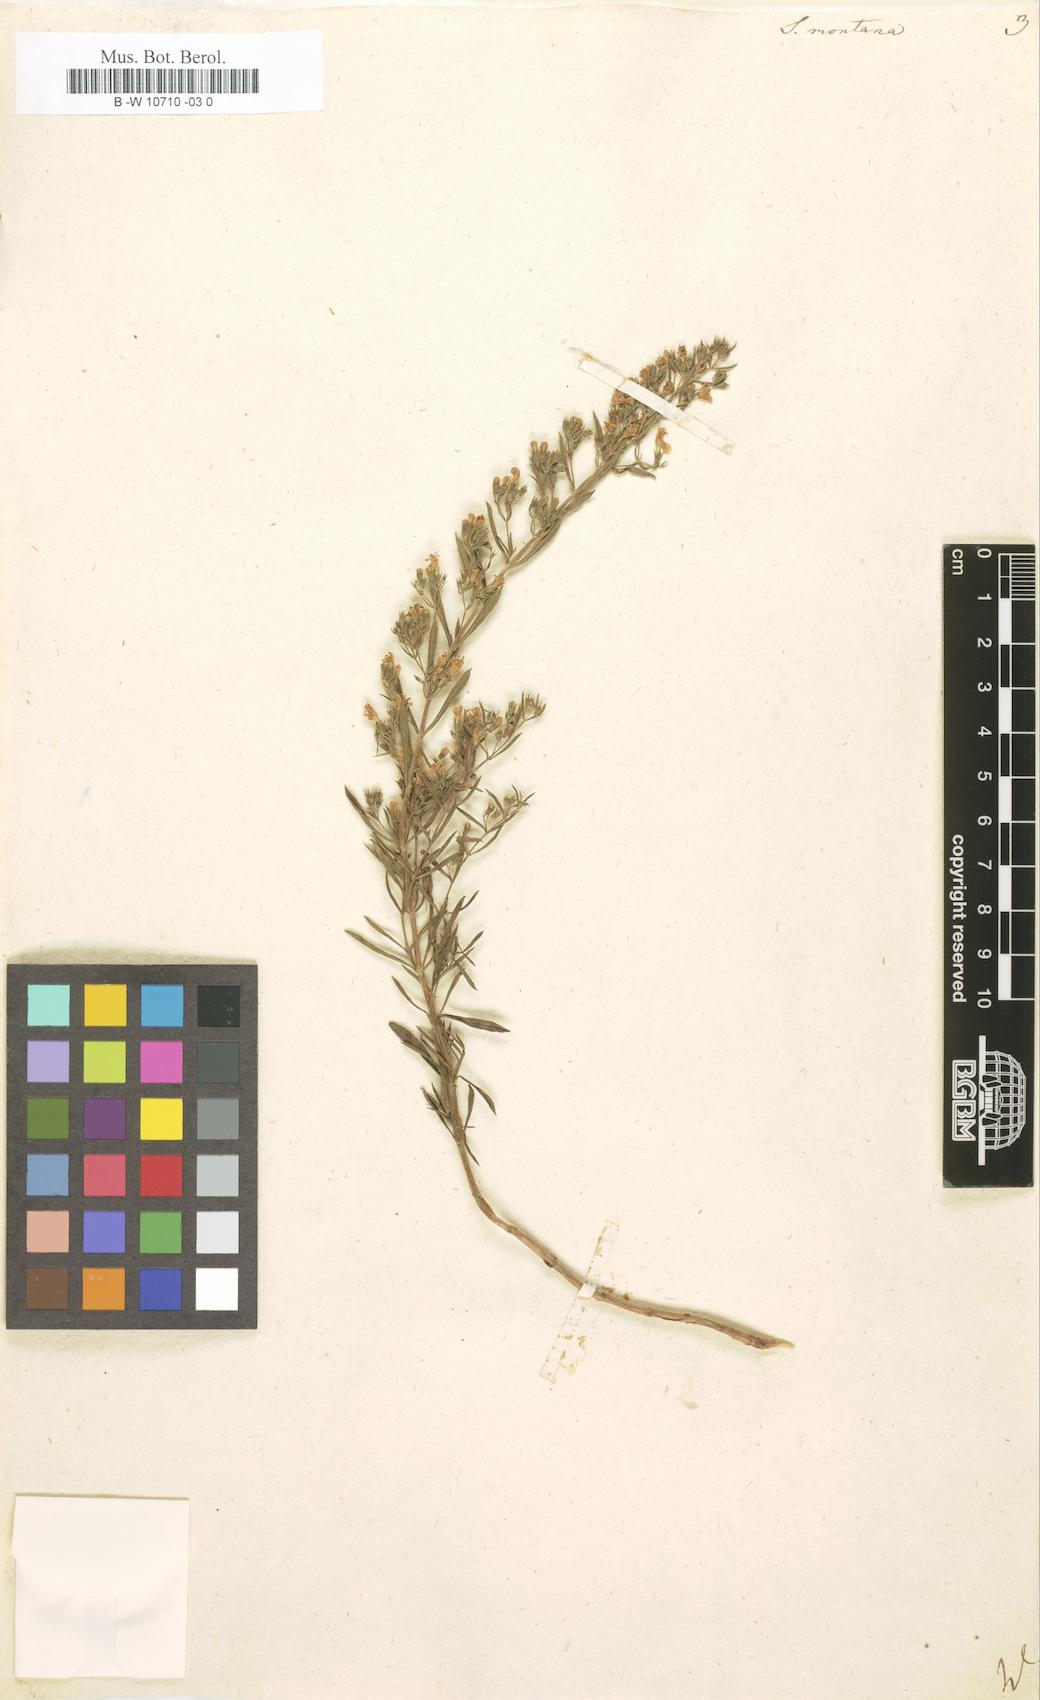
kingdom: Plantae
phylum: Tracheophyta
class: Magnoliopsida
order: Lamiales
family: Lamiaceae
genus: Satureja
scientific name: Satureja montana
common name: Winter savory
